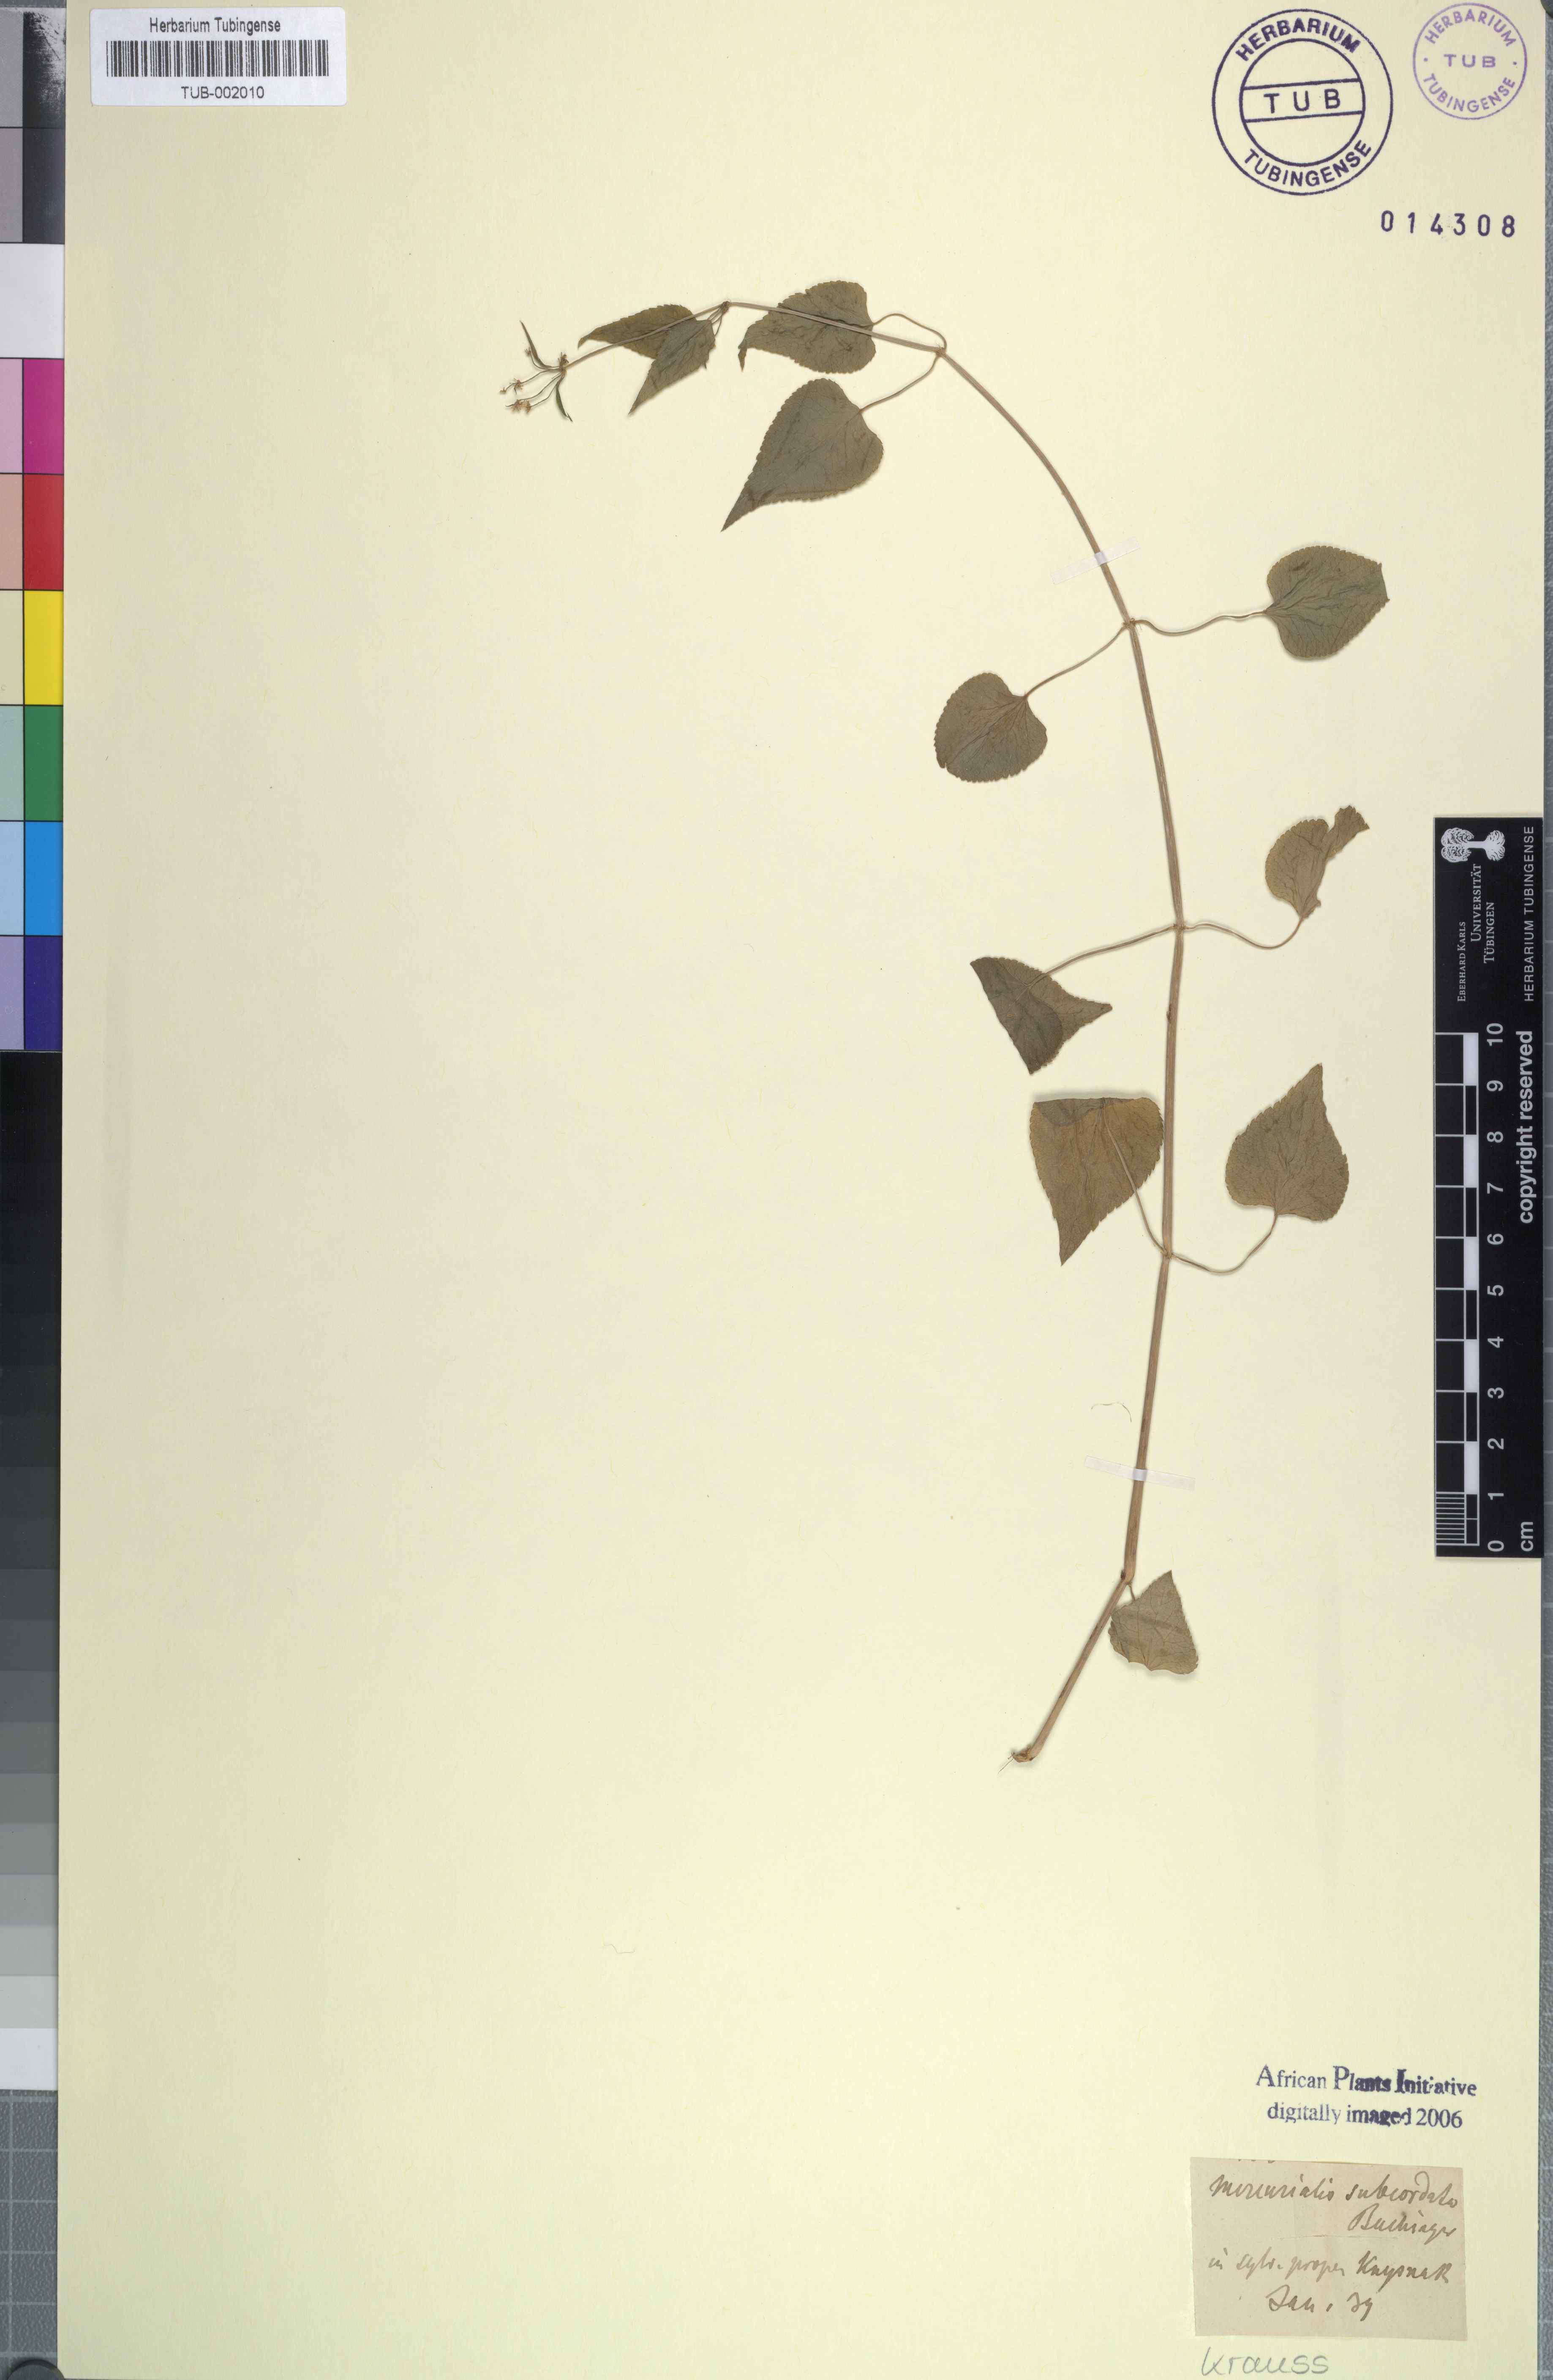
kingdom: Plantae
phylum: Tracheophyta
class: Magnoliopsida
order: Malpighiales
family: Euphorbiaceae
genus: Adenocline
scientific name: Adenocline acuta
